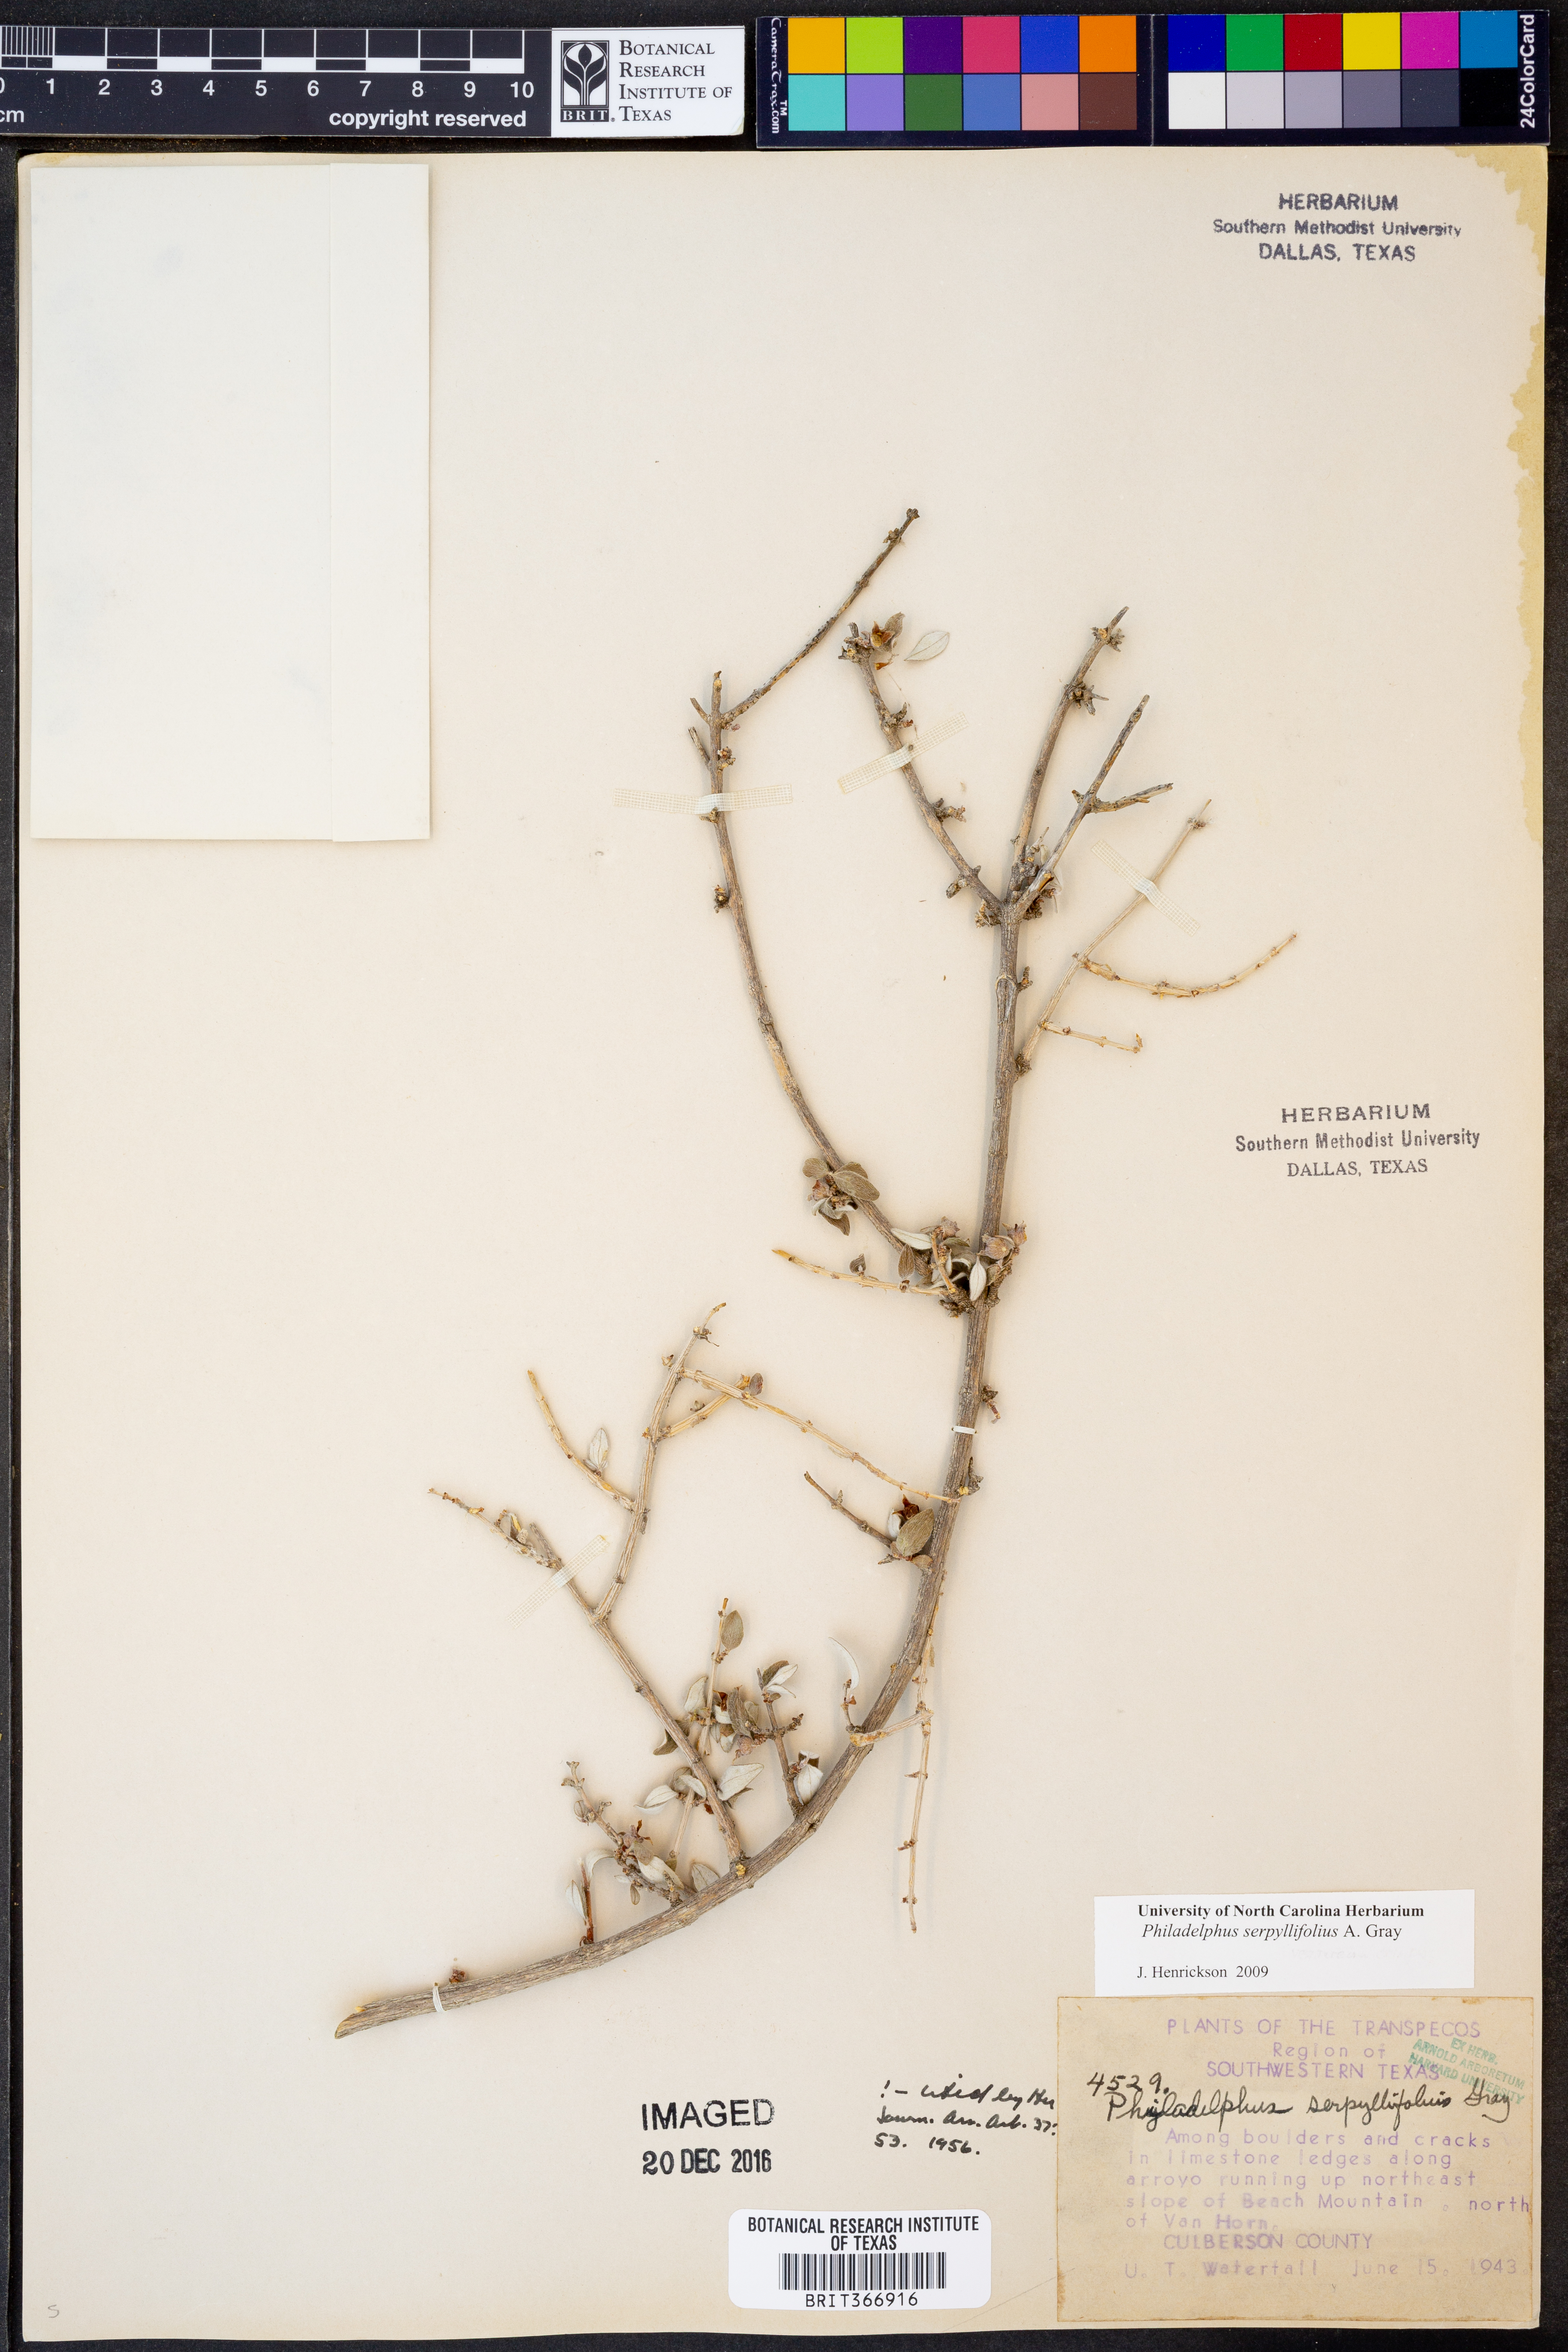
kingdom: Plantae
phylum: Tracheophyta
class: Magnoliopsida
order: Cornales
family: Hydrangeaceae
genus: Philadelphus
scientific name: Philadelphus serpyllifolius
